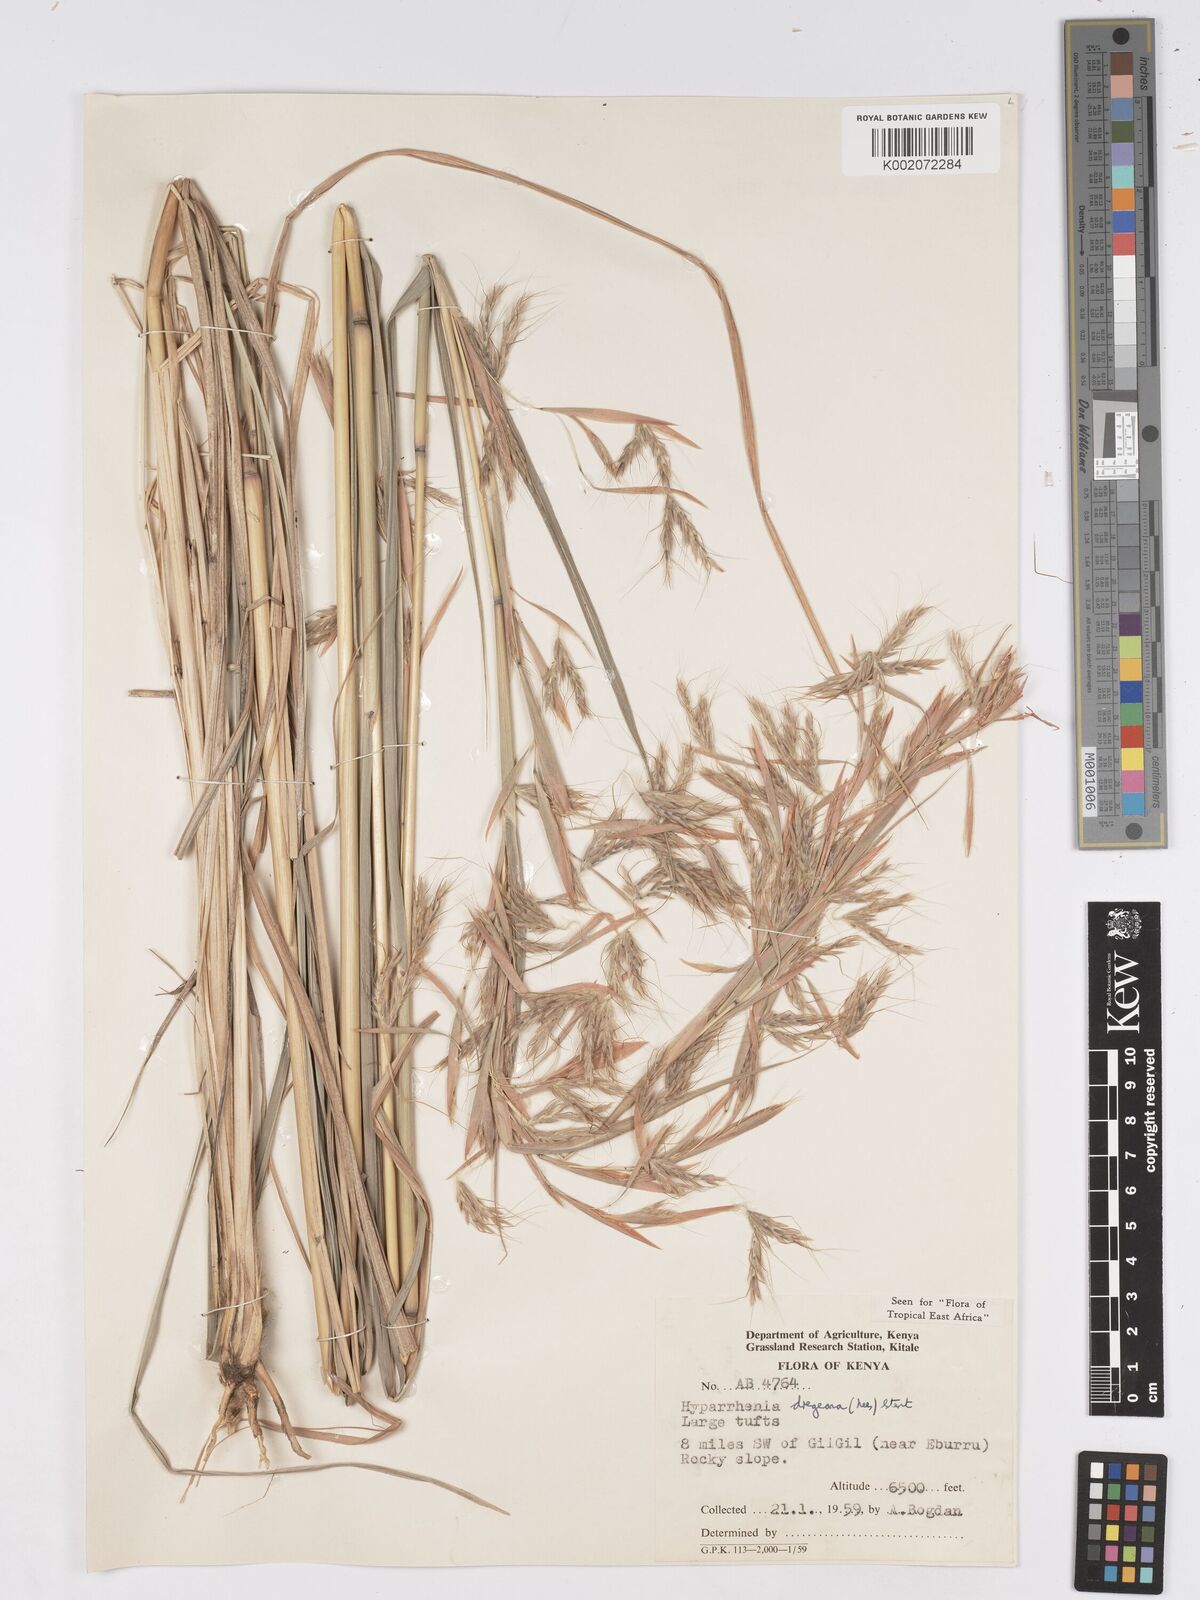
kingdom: Plantae
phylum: Tracheophyta
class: Liliopsida
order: Poales
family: Poaceae
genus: Hyparrhenia
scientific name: Hyparrhenia dregeana
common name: Silky thatching grass
